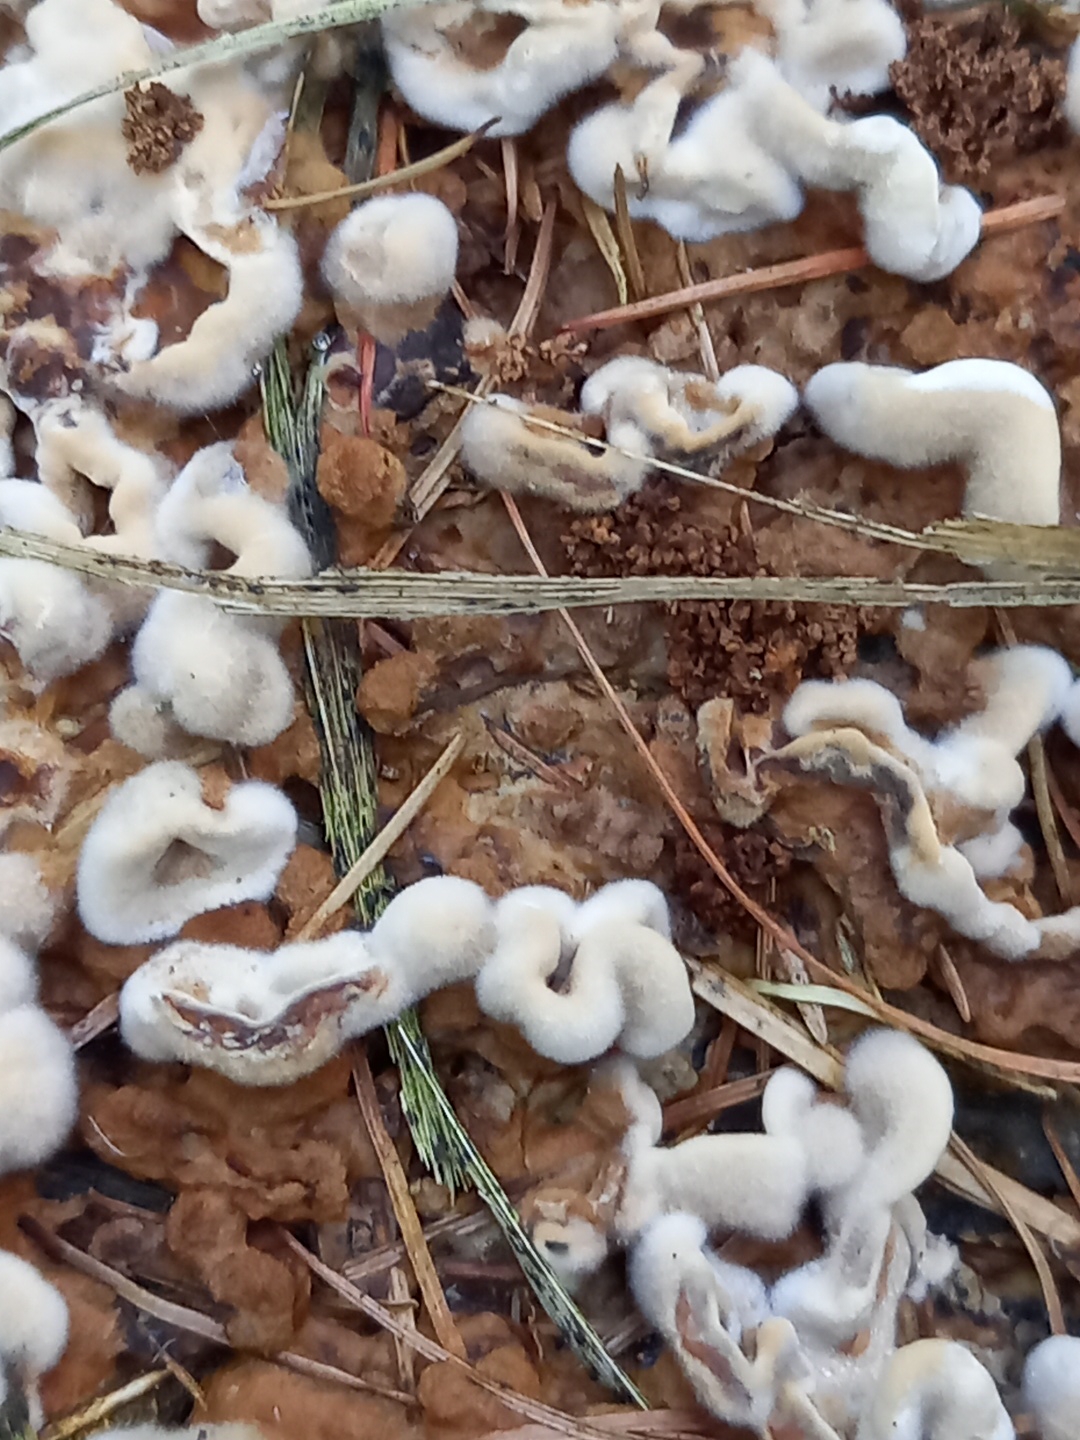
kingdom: Fungi
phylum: Basidiomycota
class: Agaricomycetes
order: Polyporales
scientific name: Polyporales
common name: poresvampordenen
